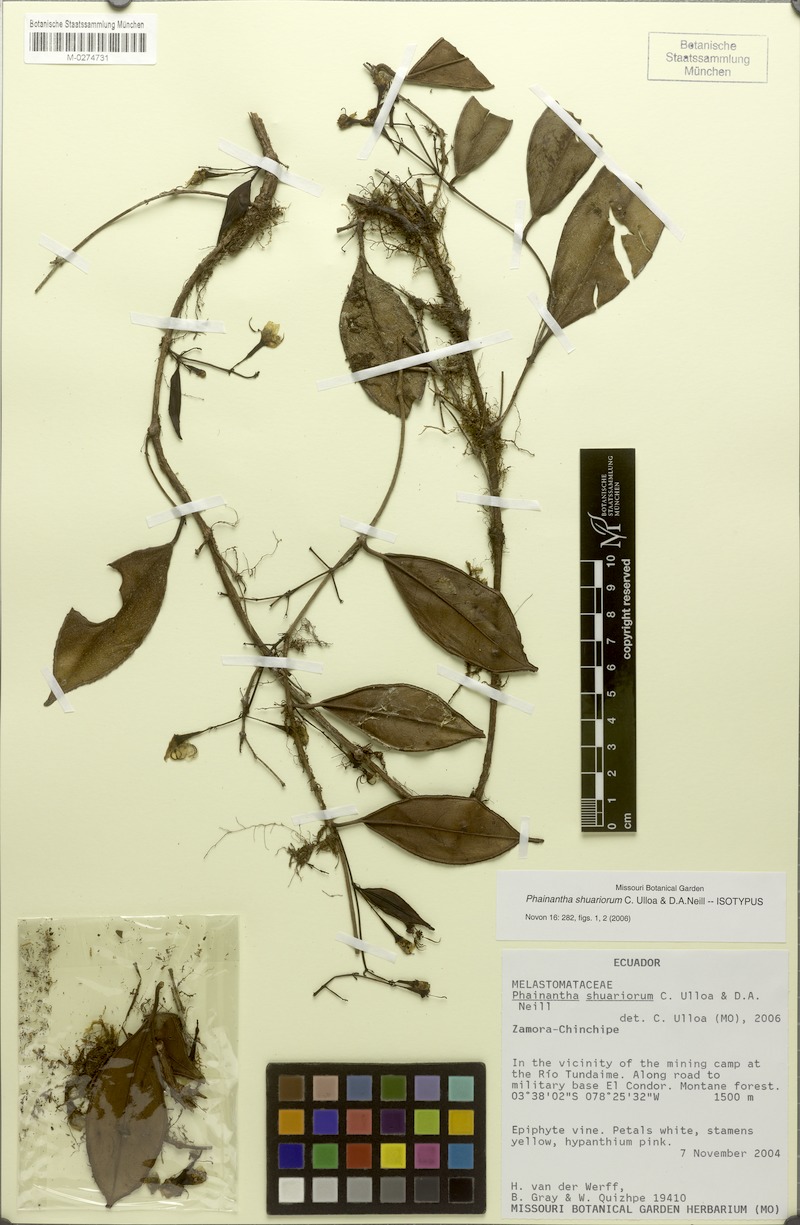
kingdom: Plantae
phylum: Tracheophyta
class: Magnoliopsida
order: Myrtales
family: Melastomataceae
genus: Phainantha
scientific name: Phainantha shuariorum
